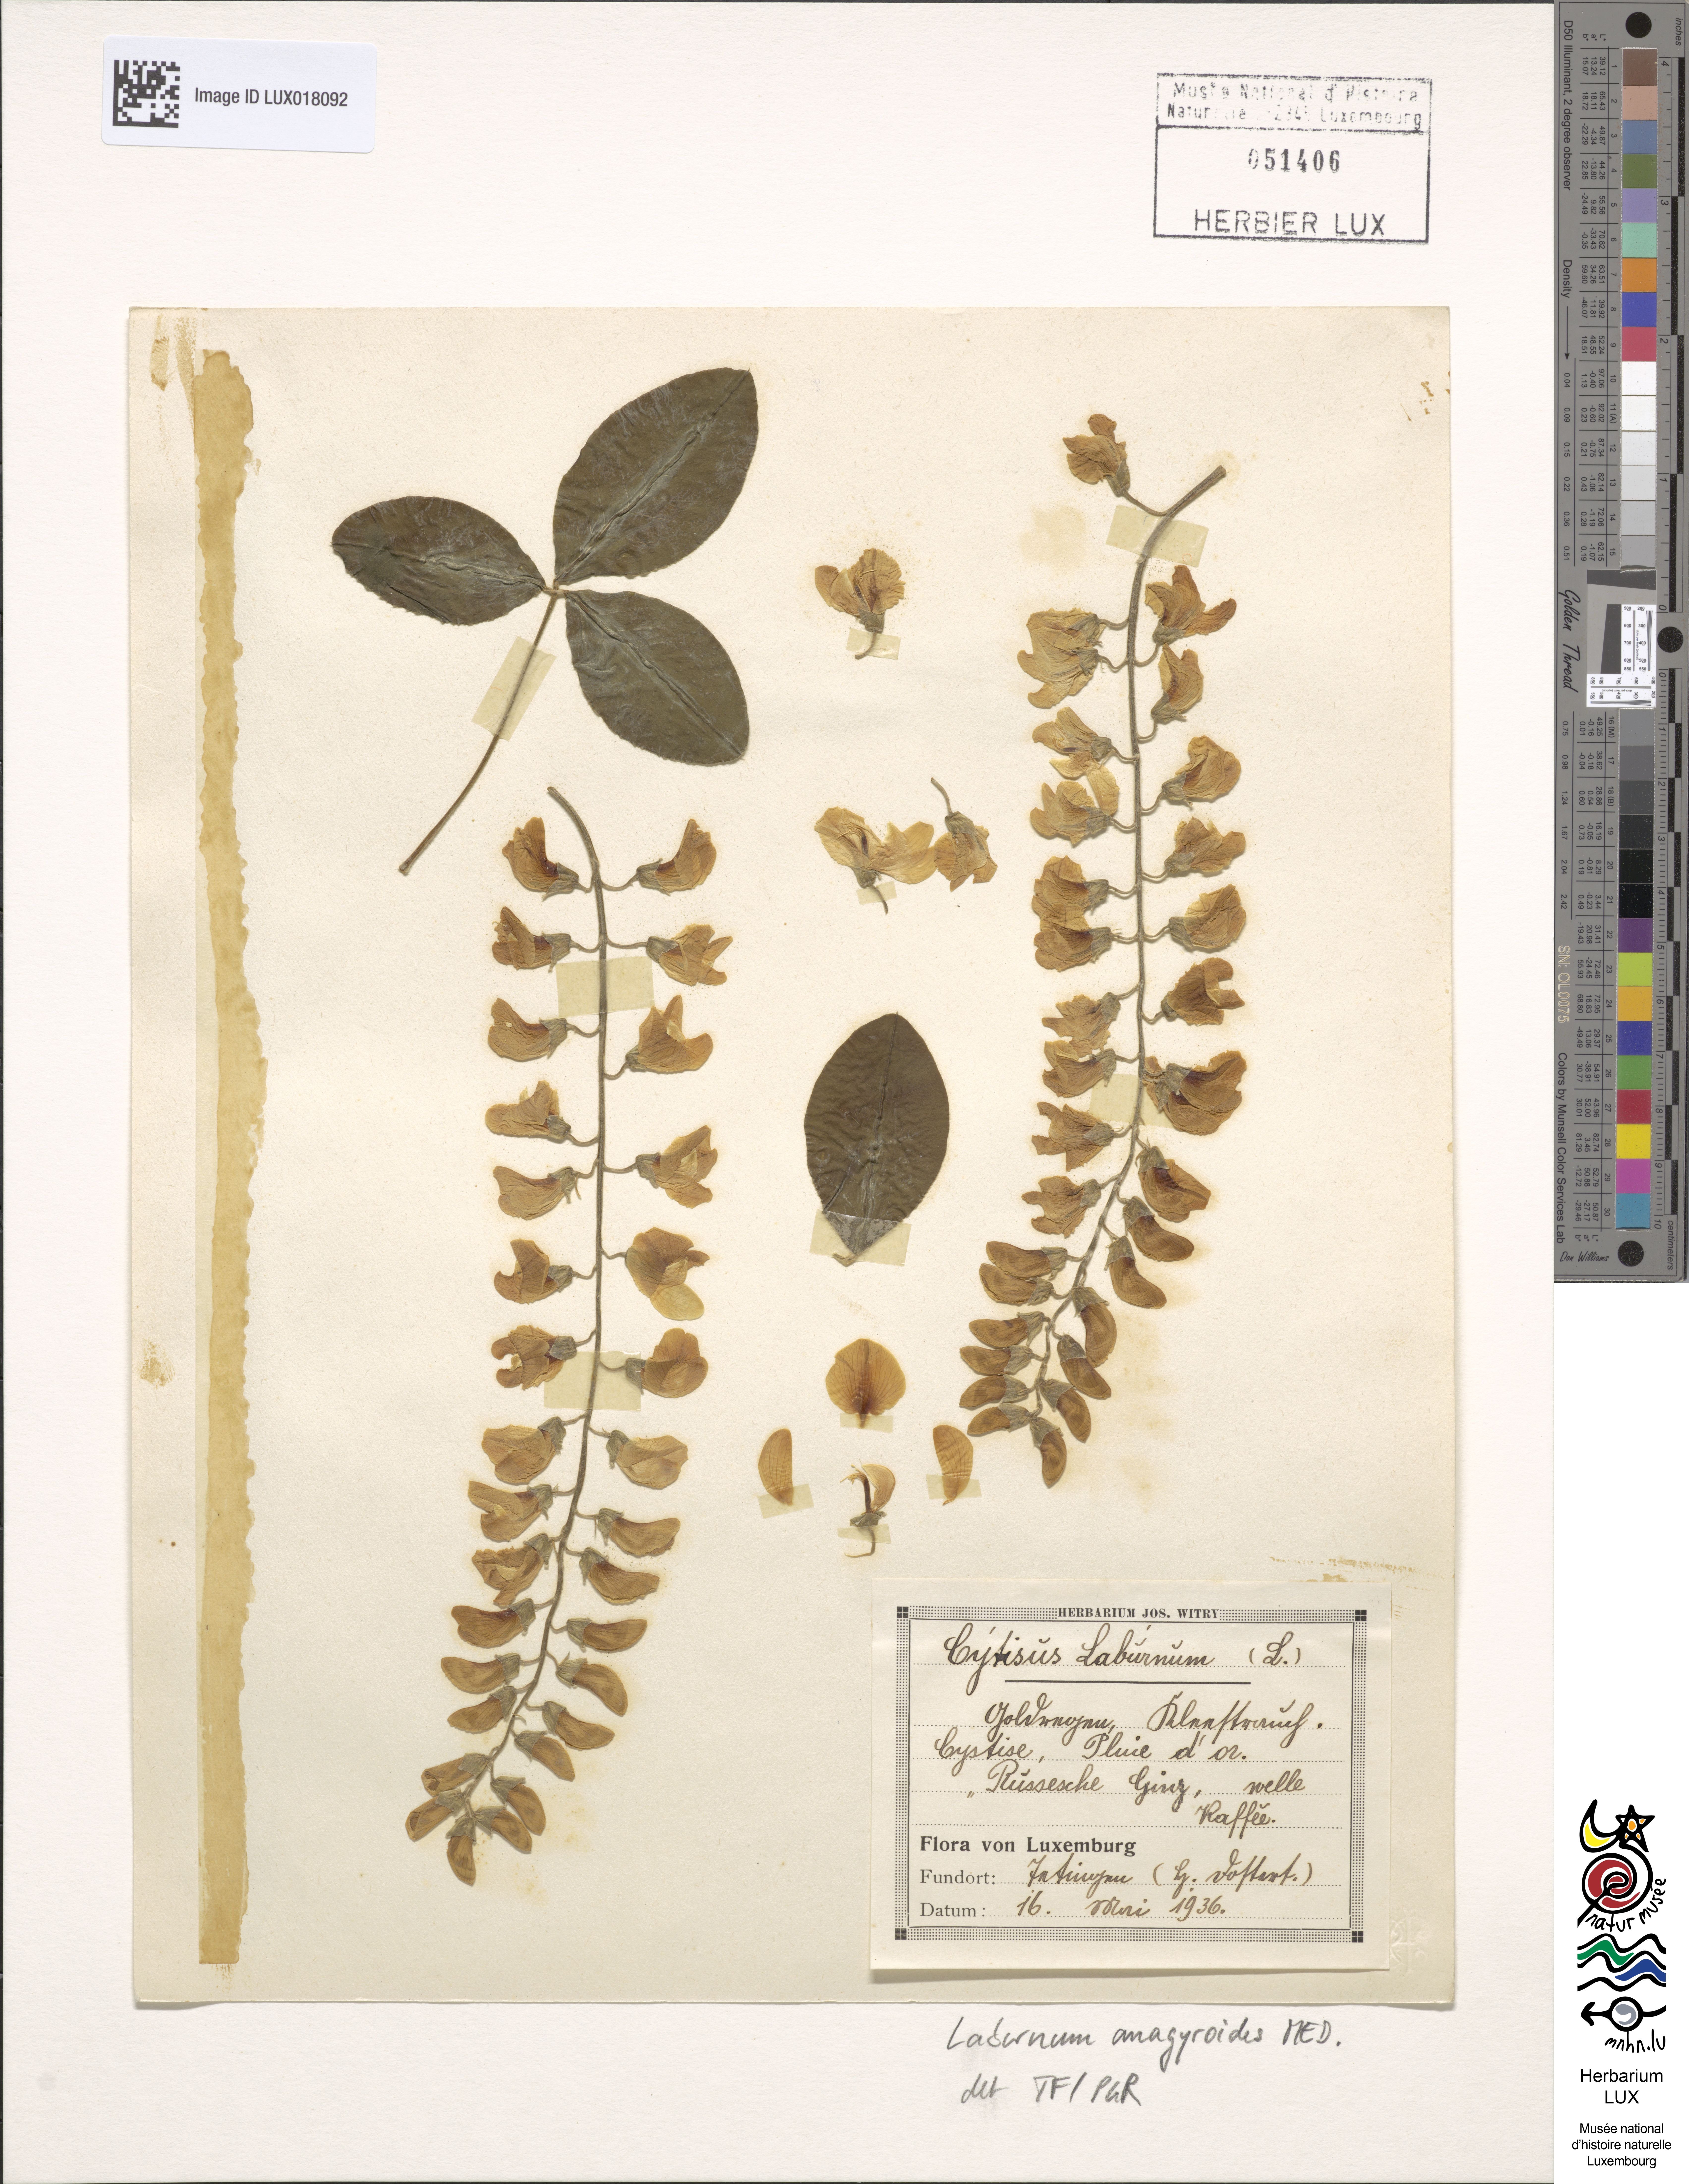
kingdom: Plantae
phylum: Tracheophyta
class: Magnoliopsida
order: Fabales
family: Fabaceae
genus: Laburnum
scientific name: Laburnum anagyroides
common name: Laburnum
